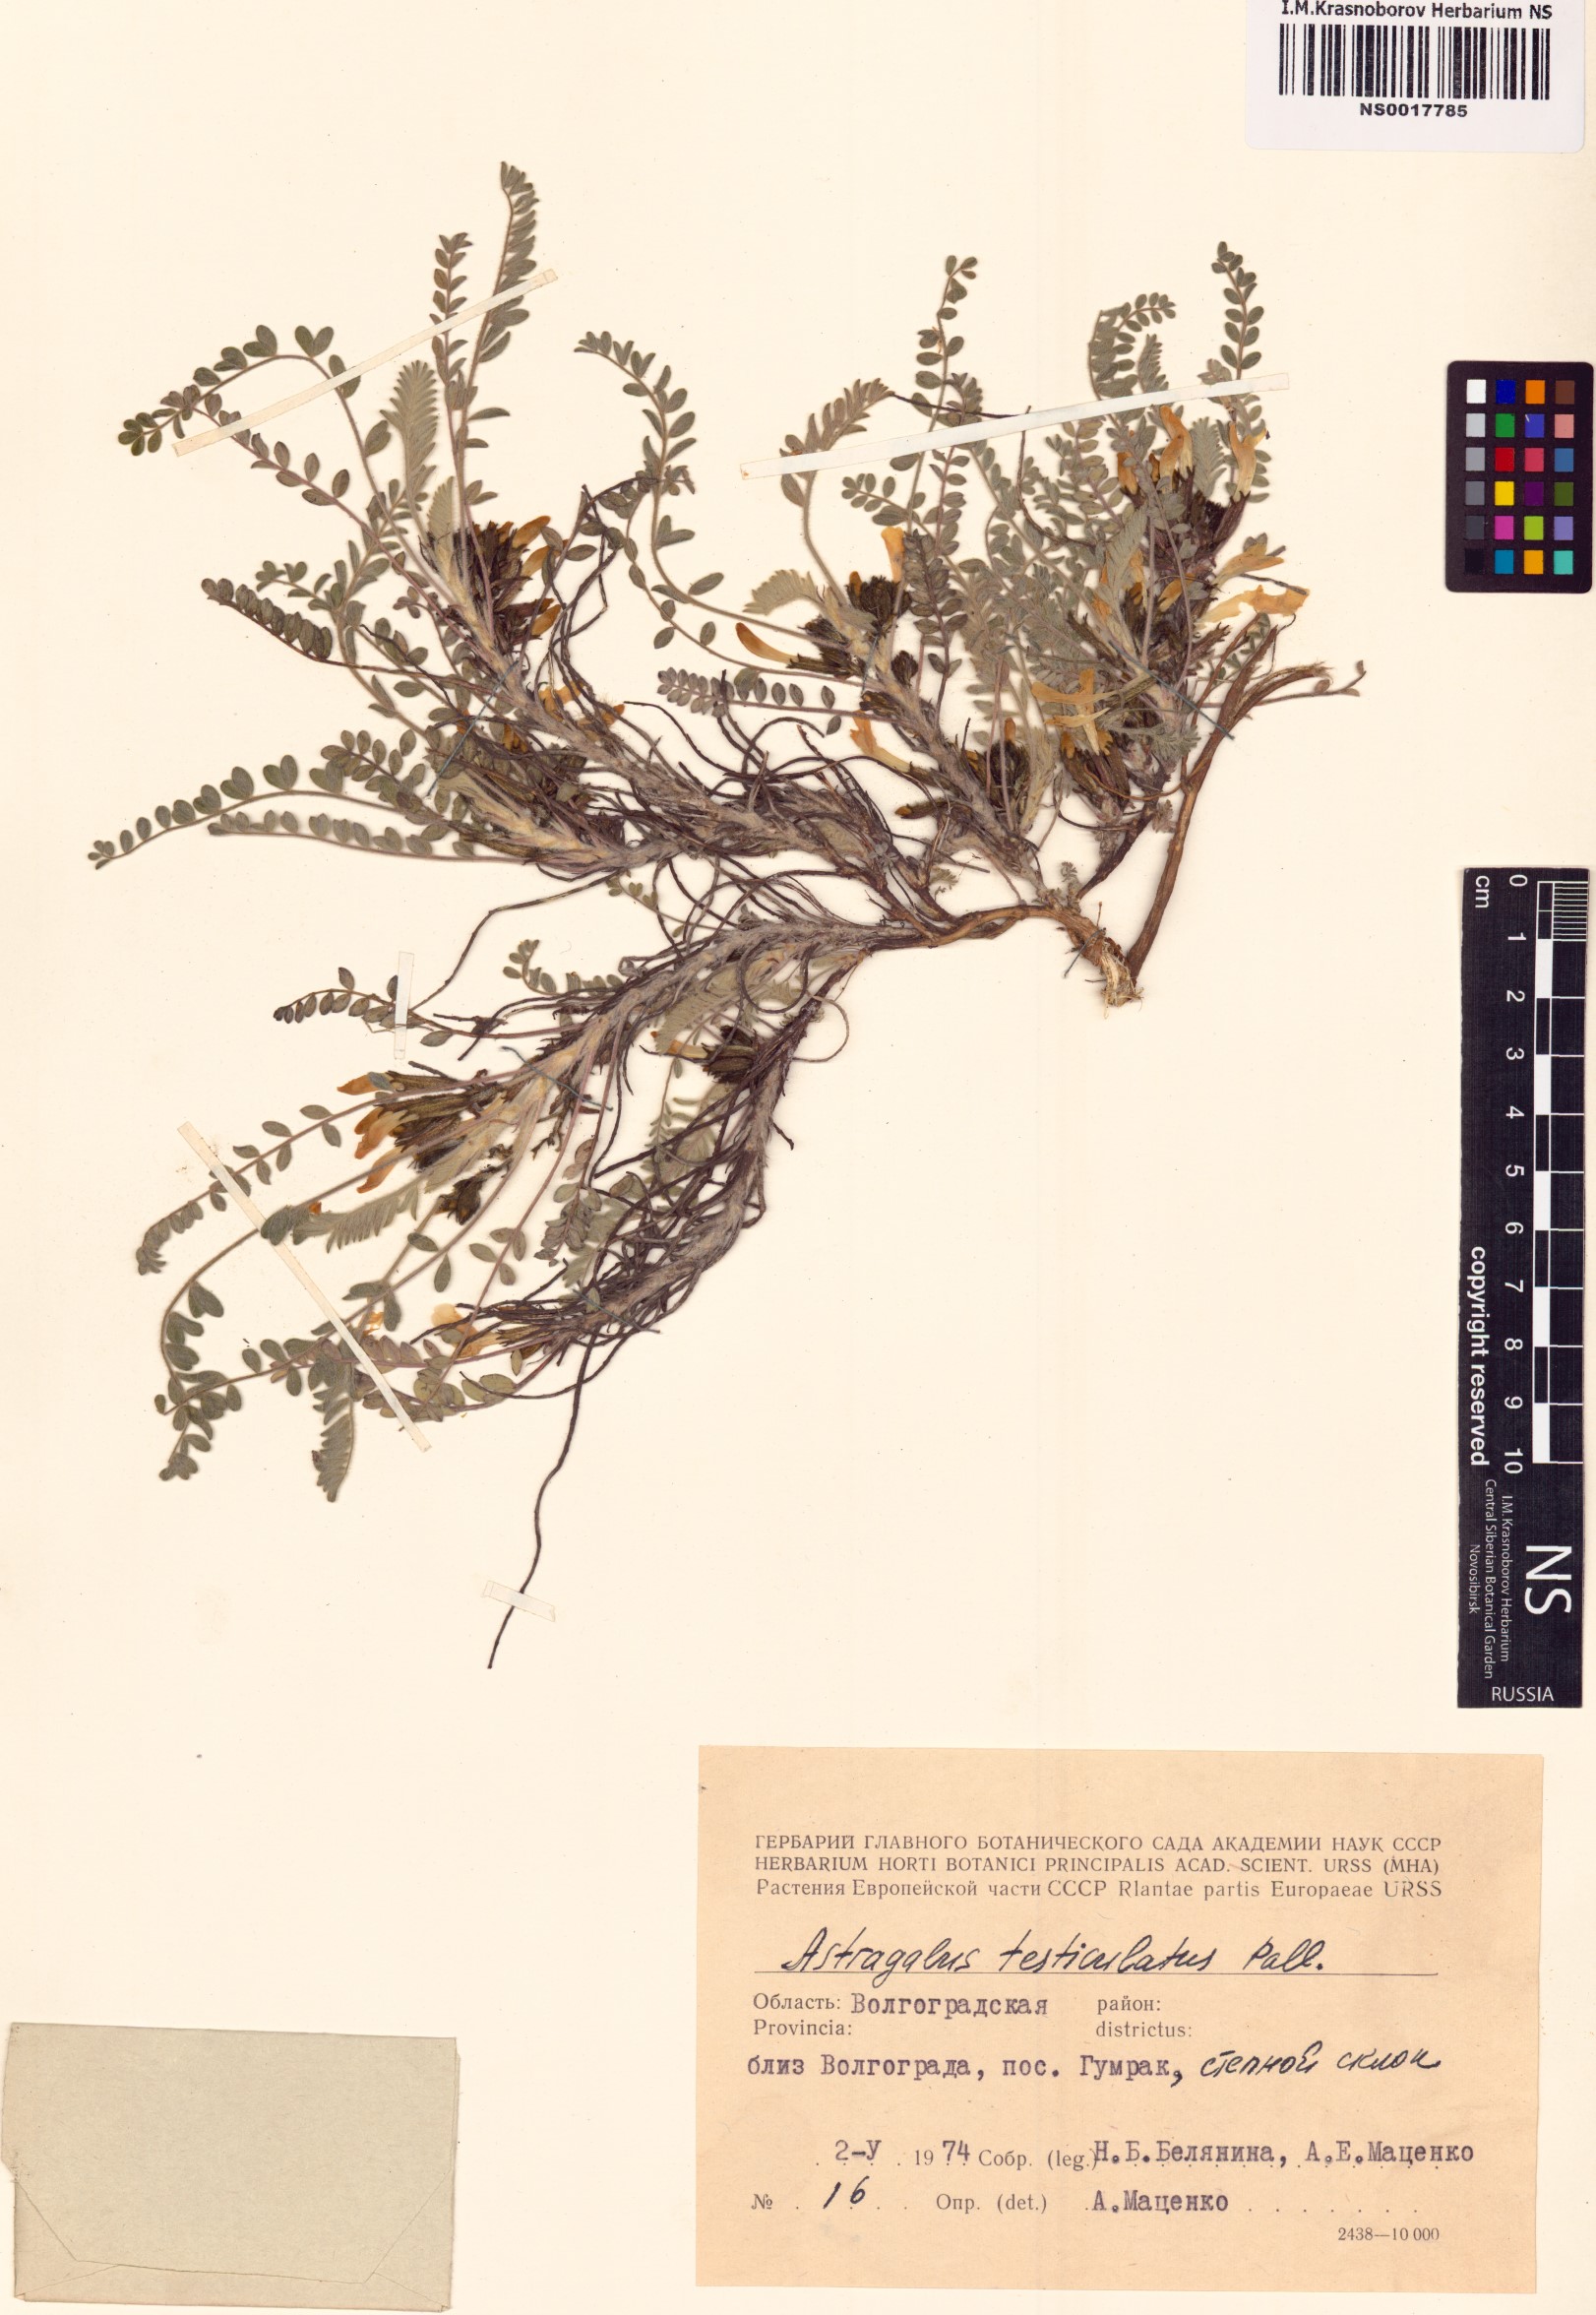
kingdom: Plantae
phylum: Tracheophyta
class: Magnoliopsida
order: Fabales
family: Fabaceae
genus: Astragalus
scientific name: Astragalus testiculatus
